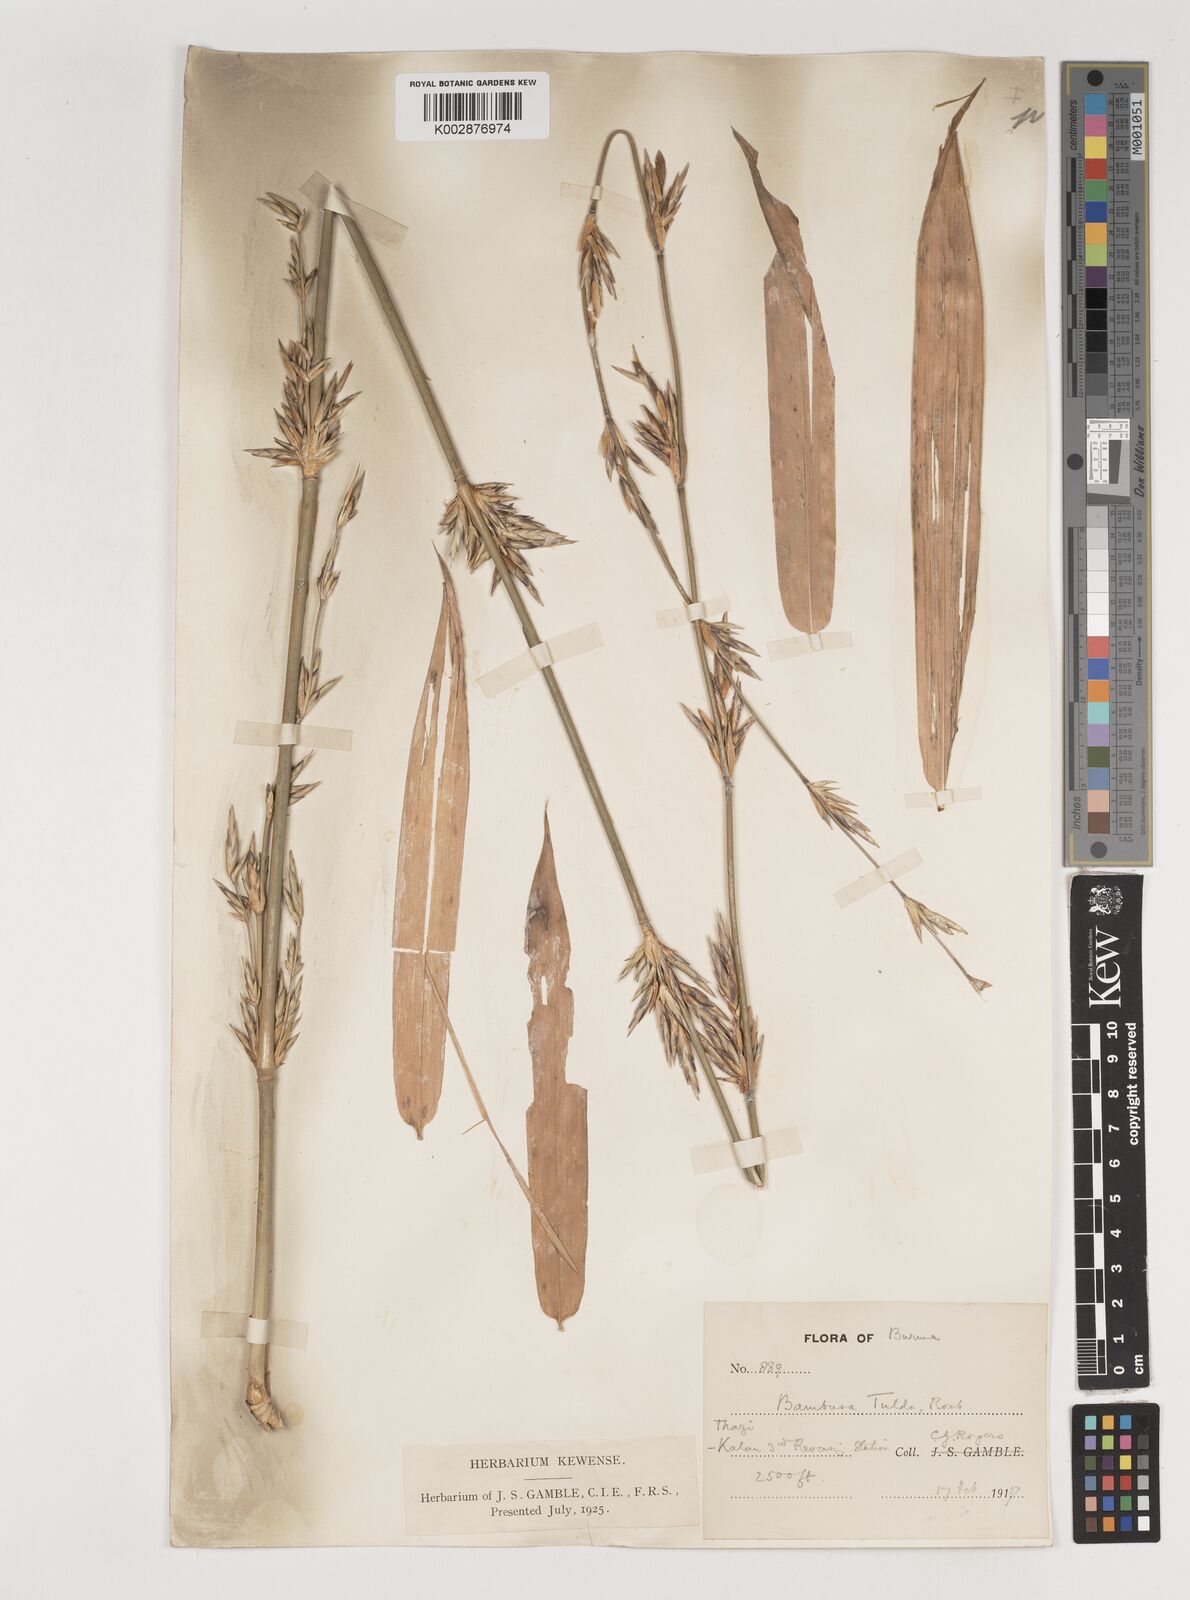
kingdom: Plantae
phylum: Tracheophyta
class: Liliopsida
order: Poales
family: Poaceae
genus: Bambusa
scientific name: Bambusa tulda
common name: Bengal bamboo
